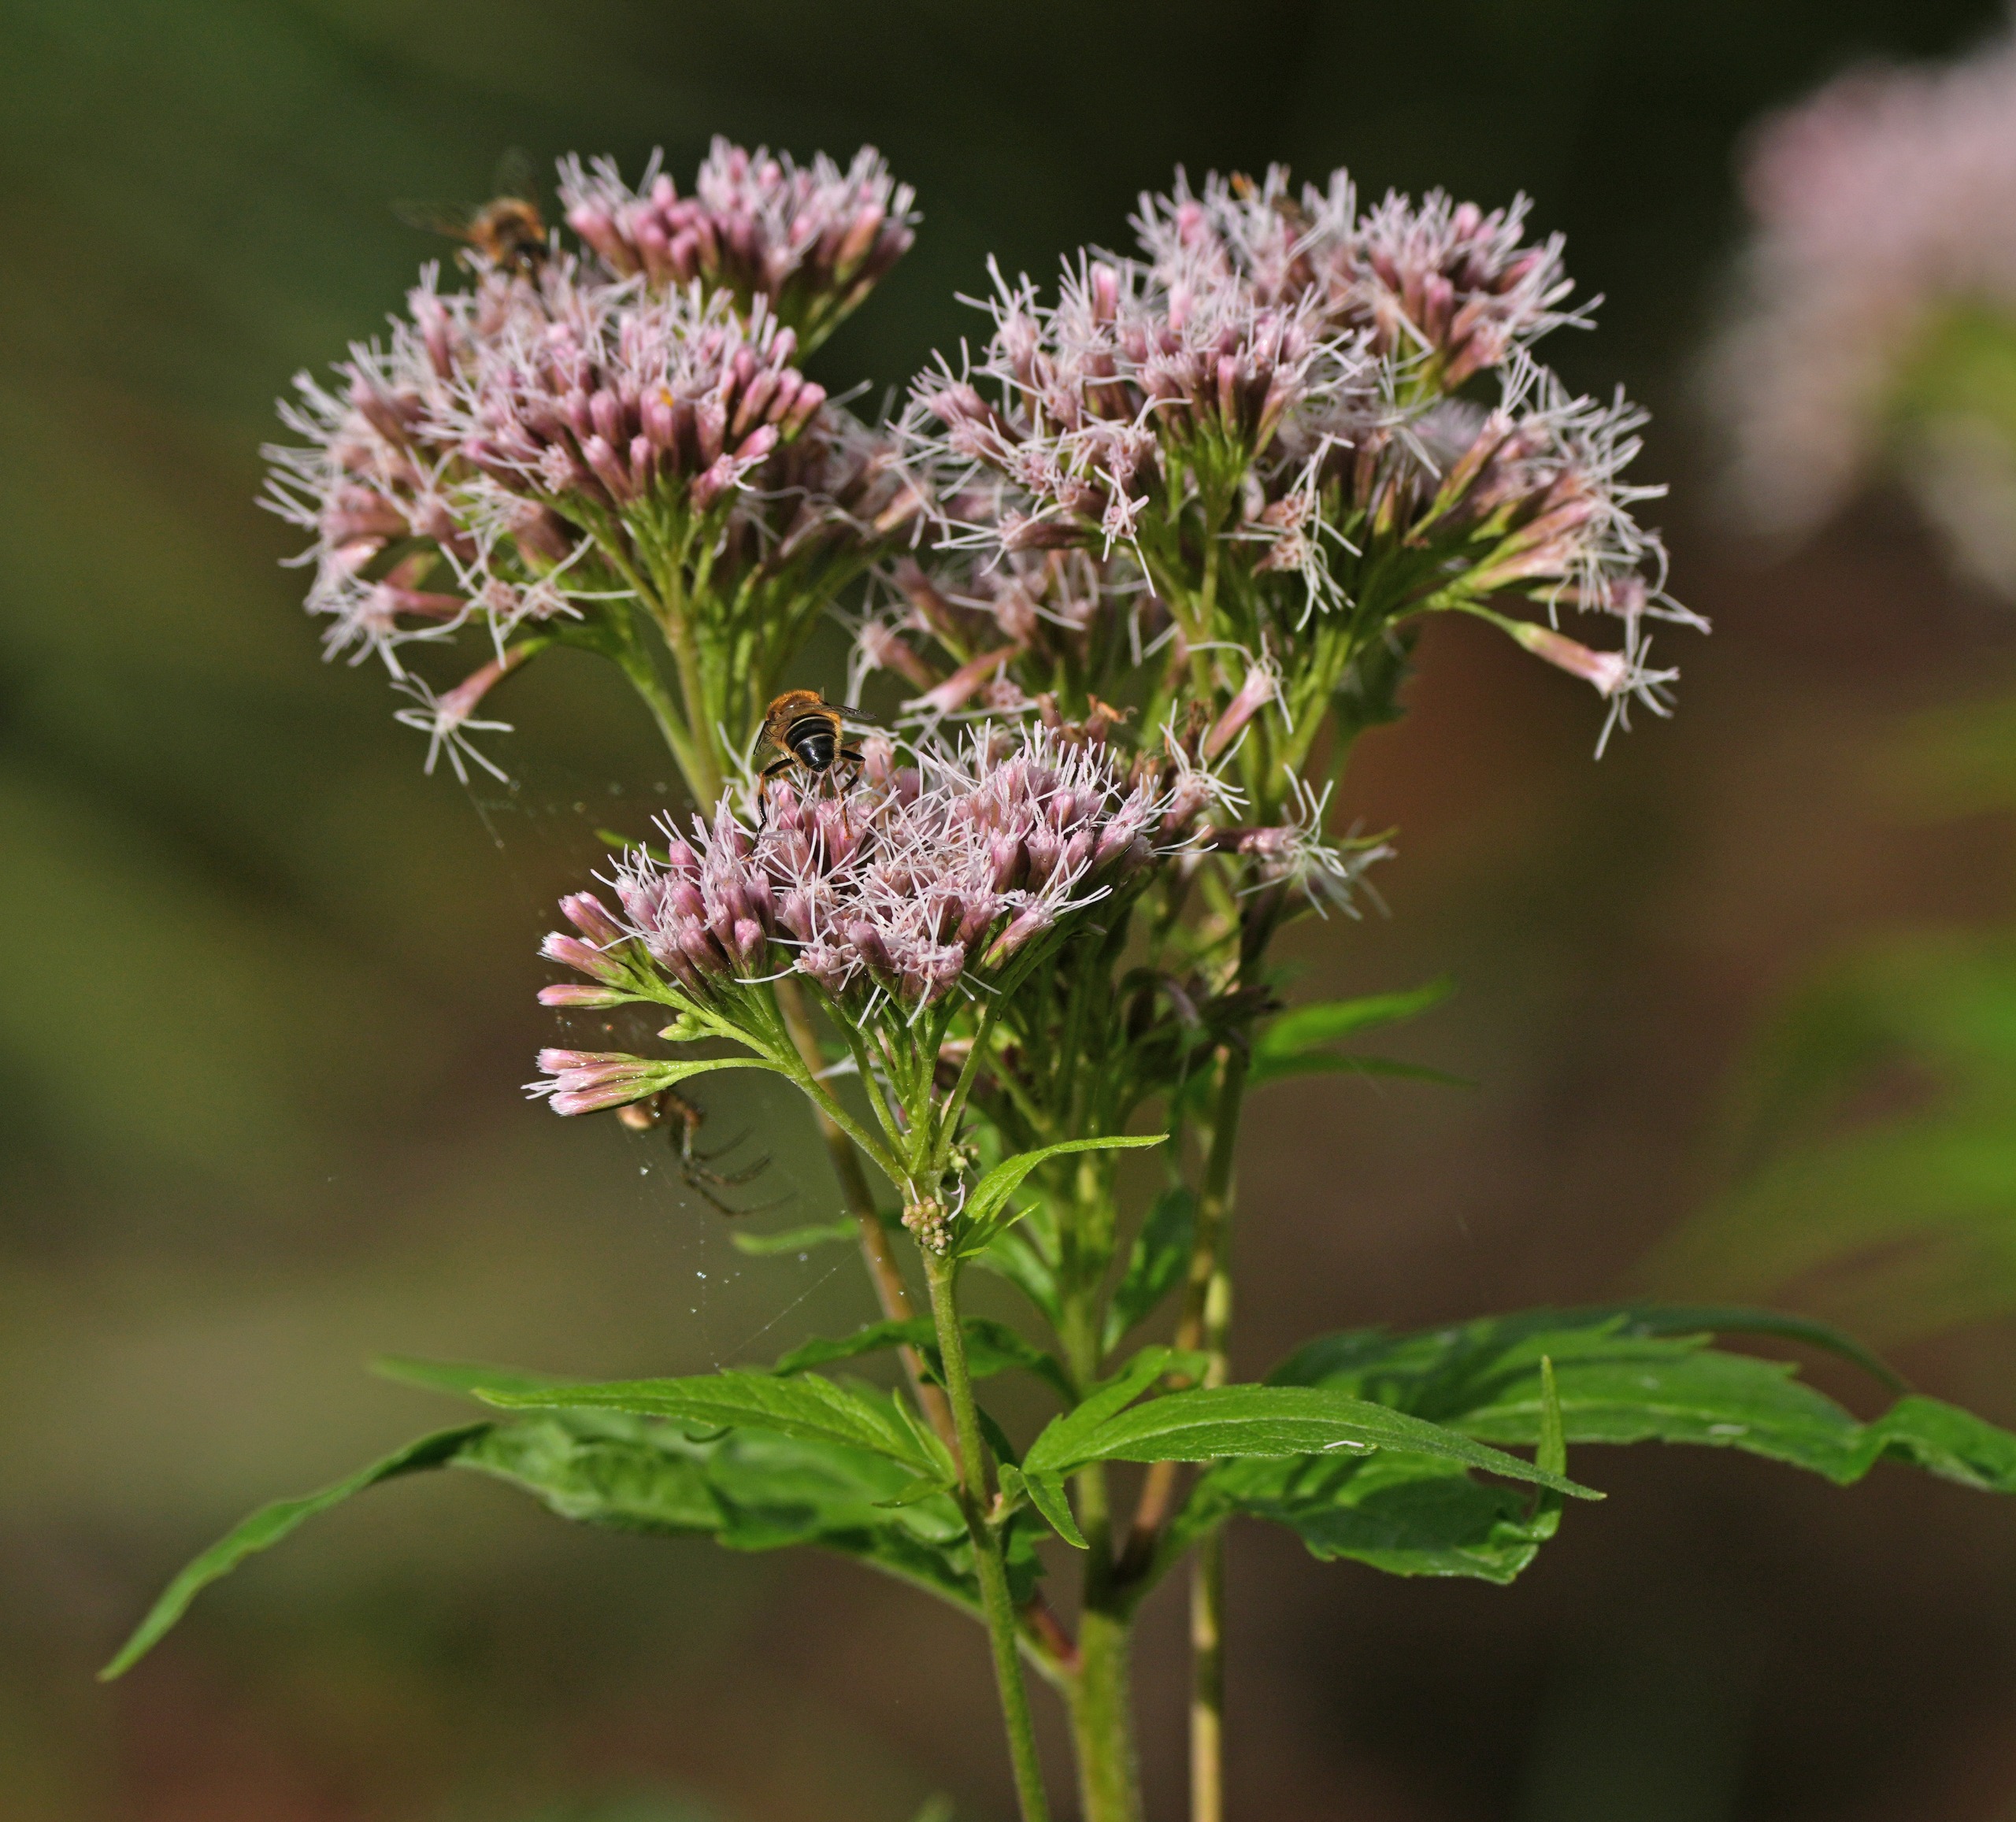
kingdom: Plantae
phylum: Tracheophyta
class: Magnoliopsida
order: Asterales
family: Asteraceae
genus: Eupatorium
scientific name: Eupatorium cannabinum
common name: Hjortetrøst
